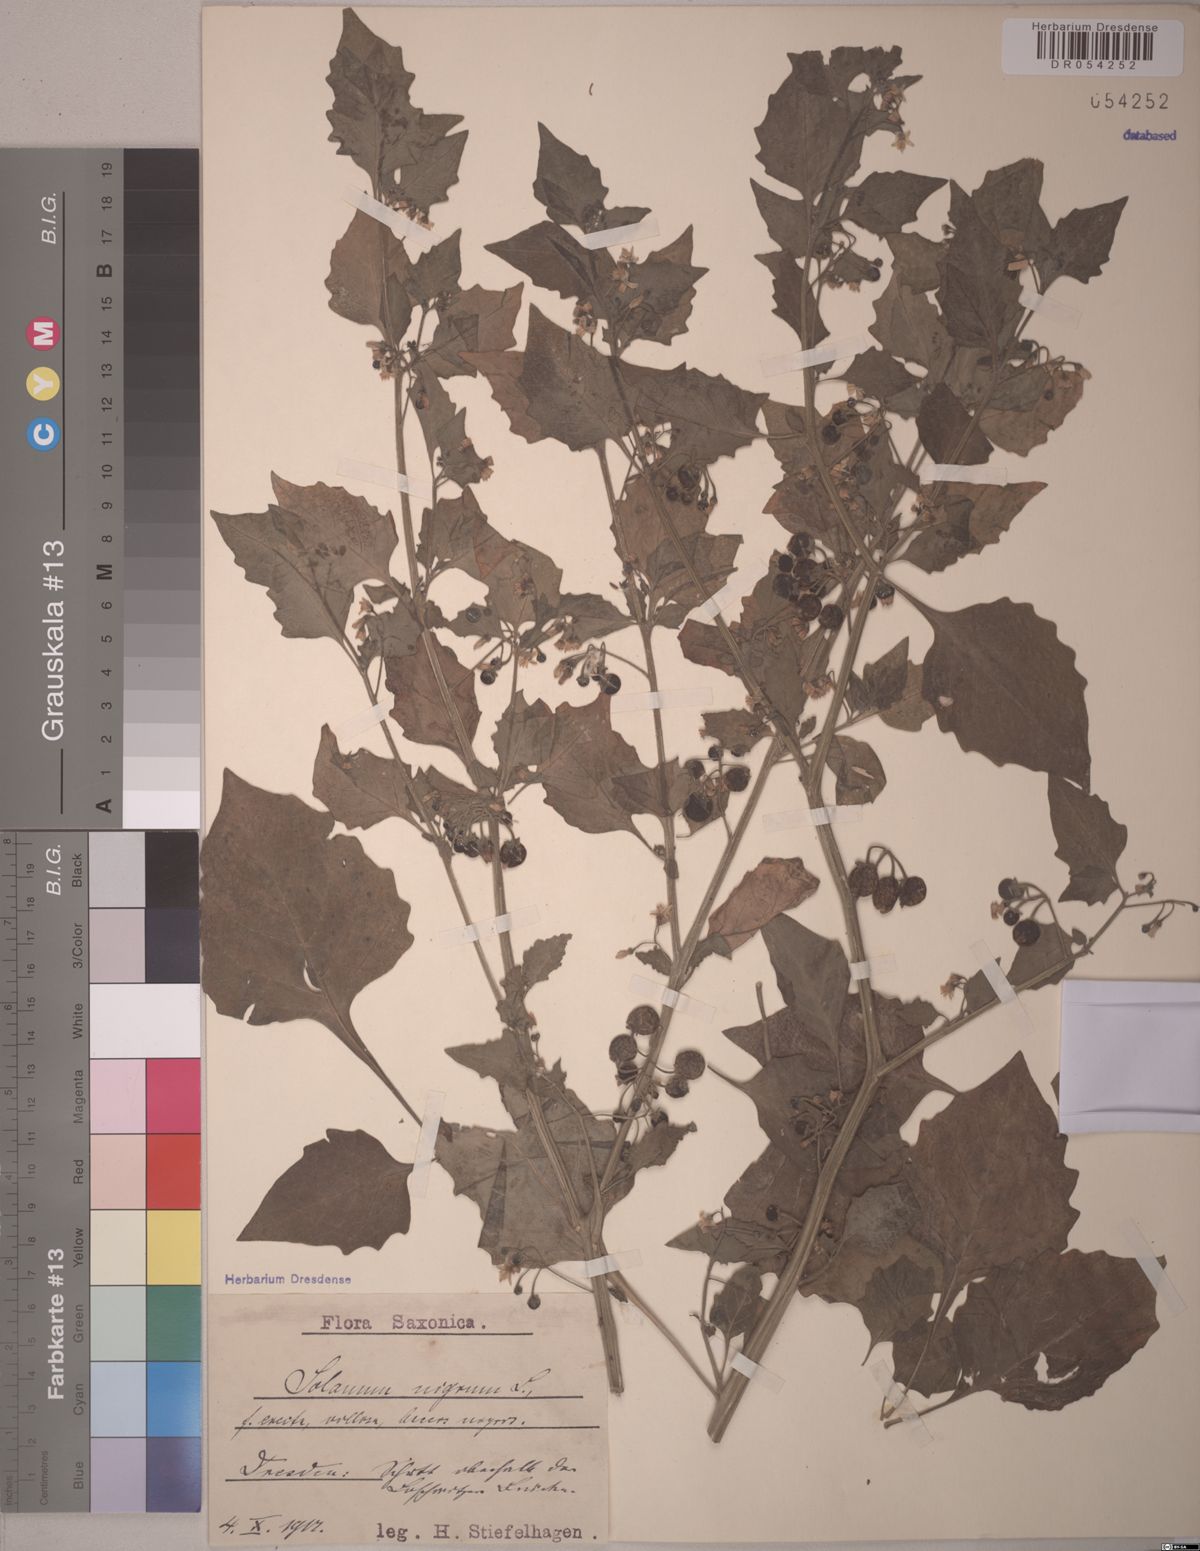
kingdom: Plantae
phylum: Tracheophyta
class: Magnoliopsida
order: Solanales
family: Solanaceae
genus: Solanum
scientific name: Solanum nigrum
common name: Black nightshade
